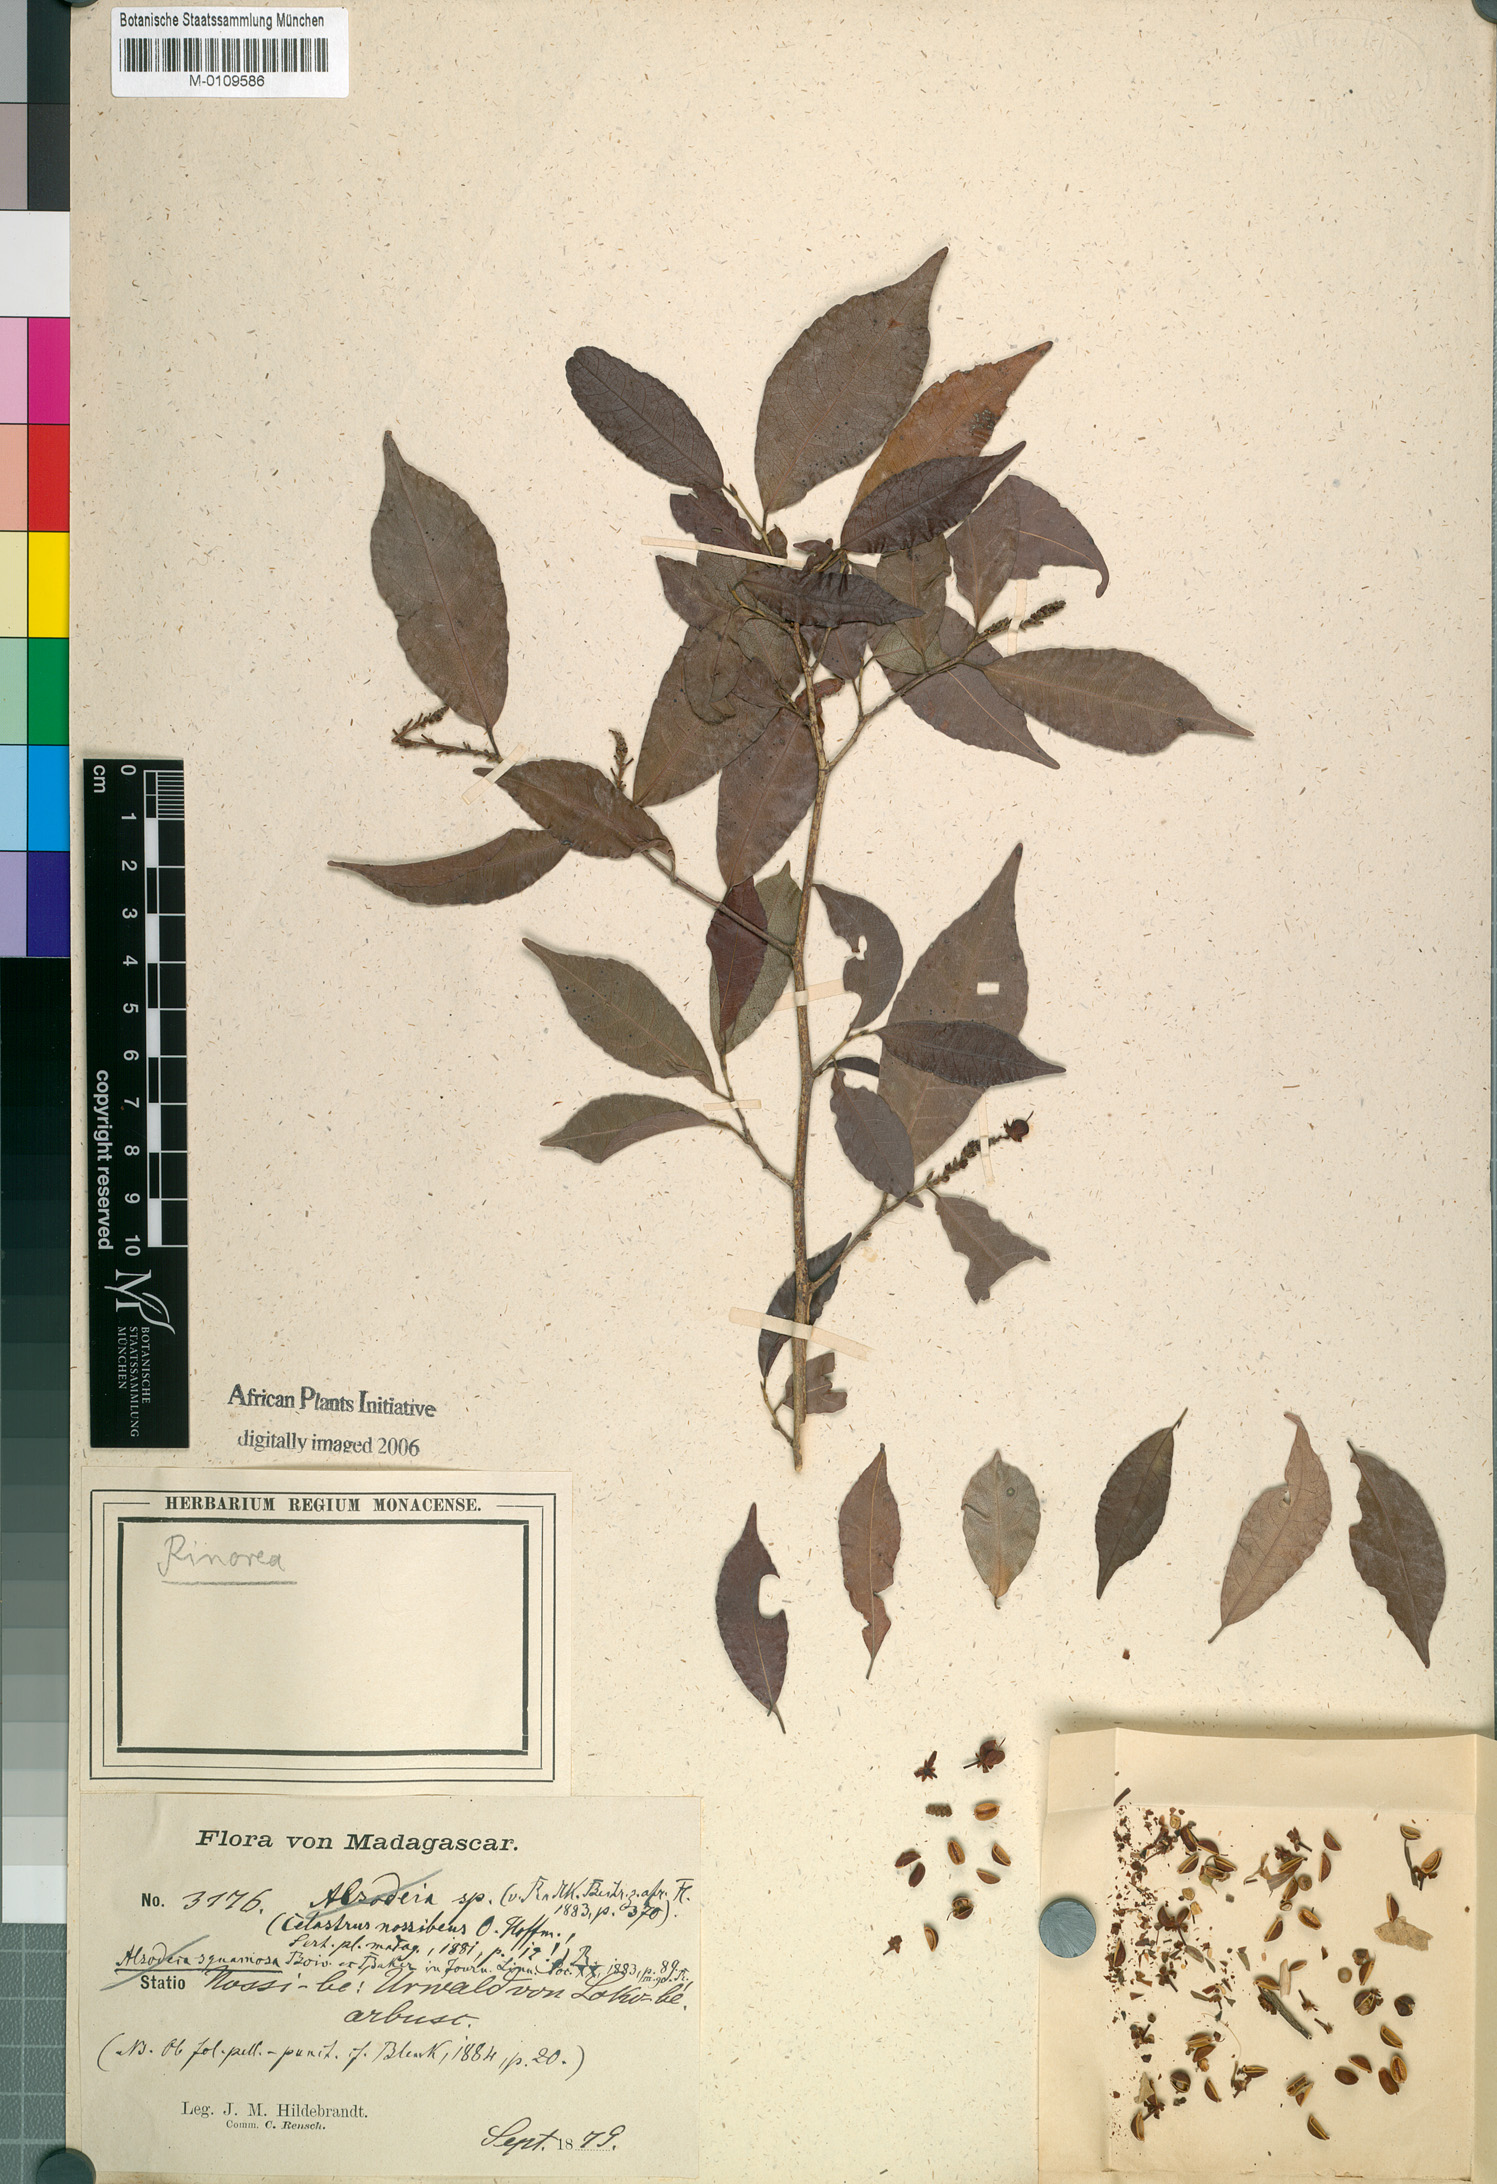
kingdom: Plantae
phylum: Tracheophyta
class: Magnoliopsida
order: Malpighiales
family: Violaceae
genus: Rinorea
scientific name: Rinorea squamosa
